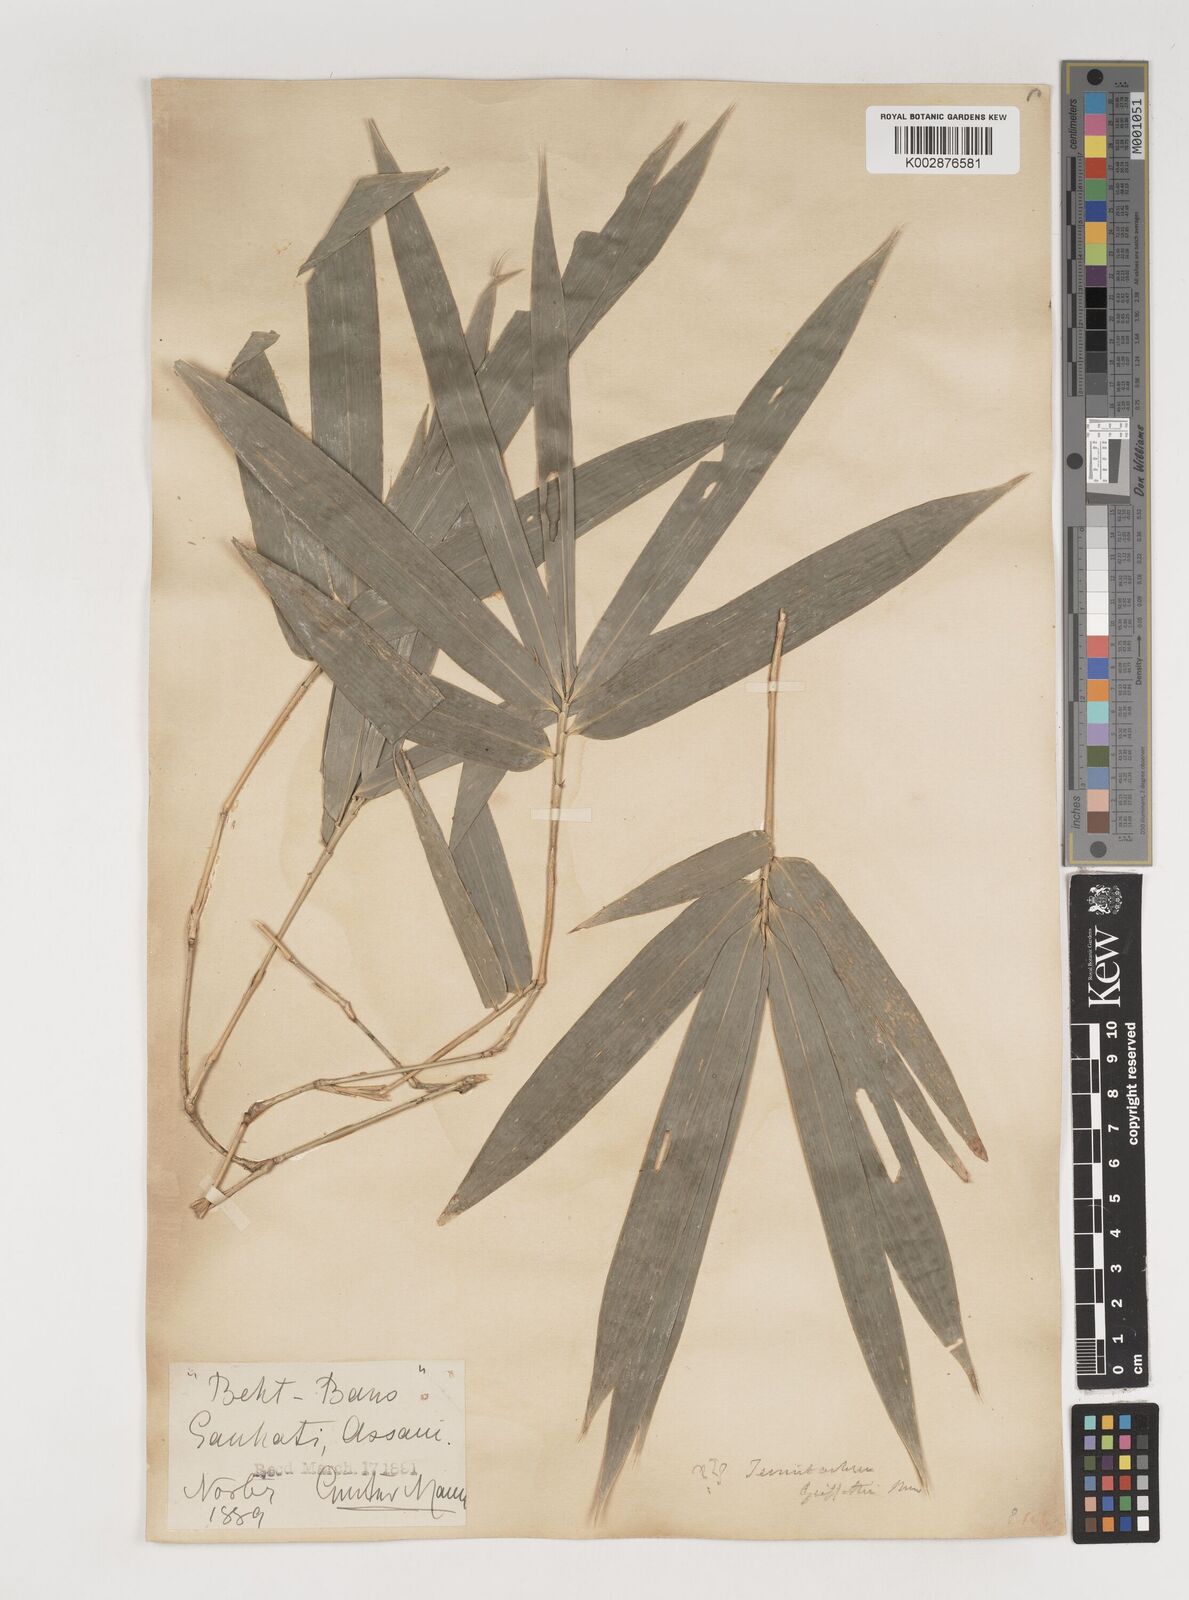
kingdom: Plantae
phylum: Tracheophyta
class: Liliopsida
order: Poales
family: Poaceae
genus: Bambusa
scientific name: Bambusa nutans
